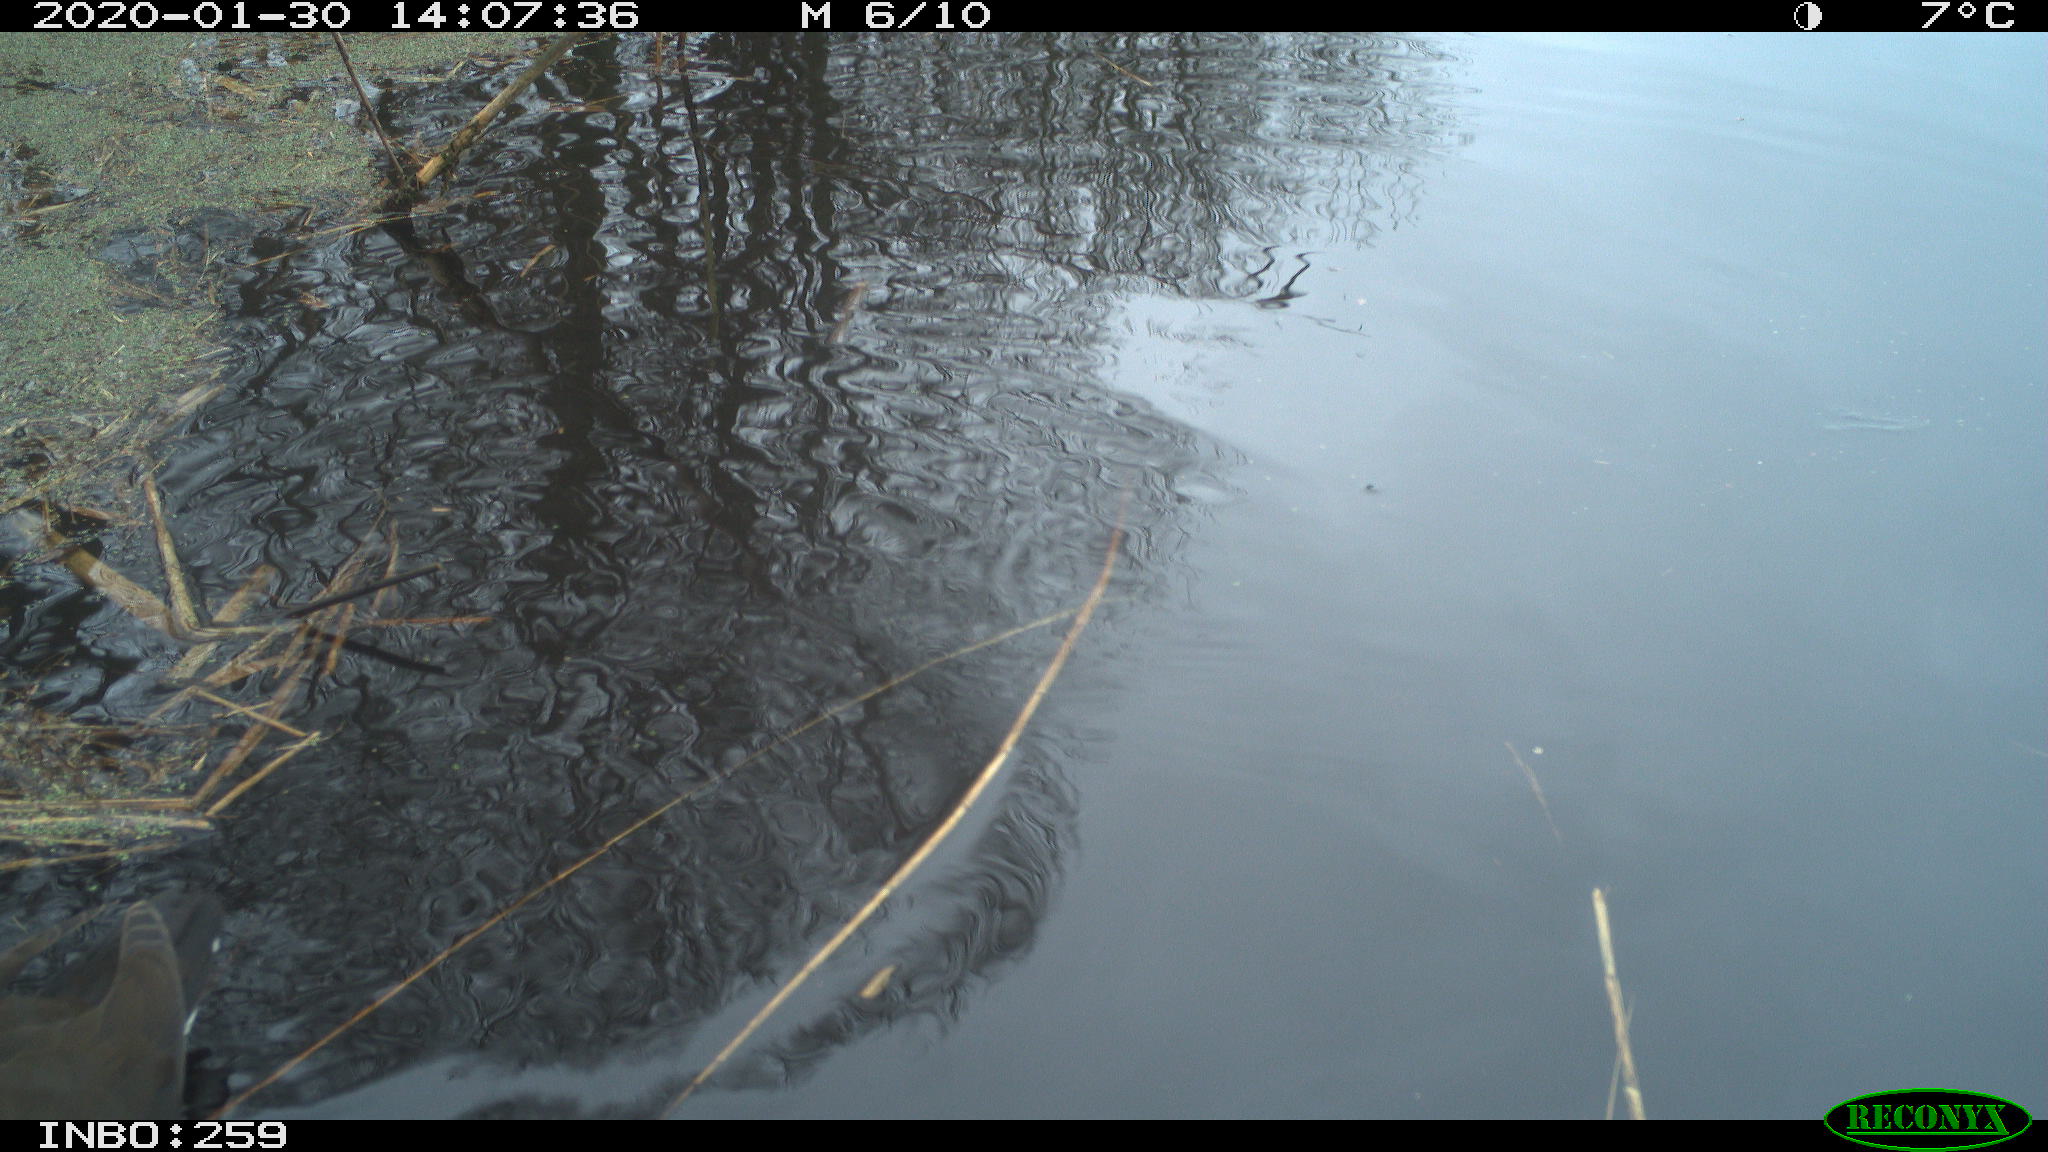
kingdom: Animalia
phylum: Chordata
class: Aves
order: Gruiformes
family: Rallidae
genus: Gallinula
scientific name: Gallinula chloropus
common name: Common moorhen
